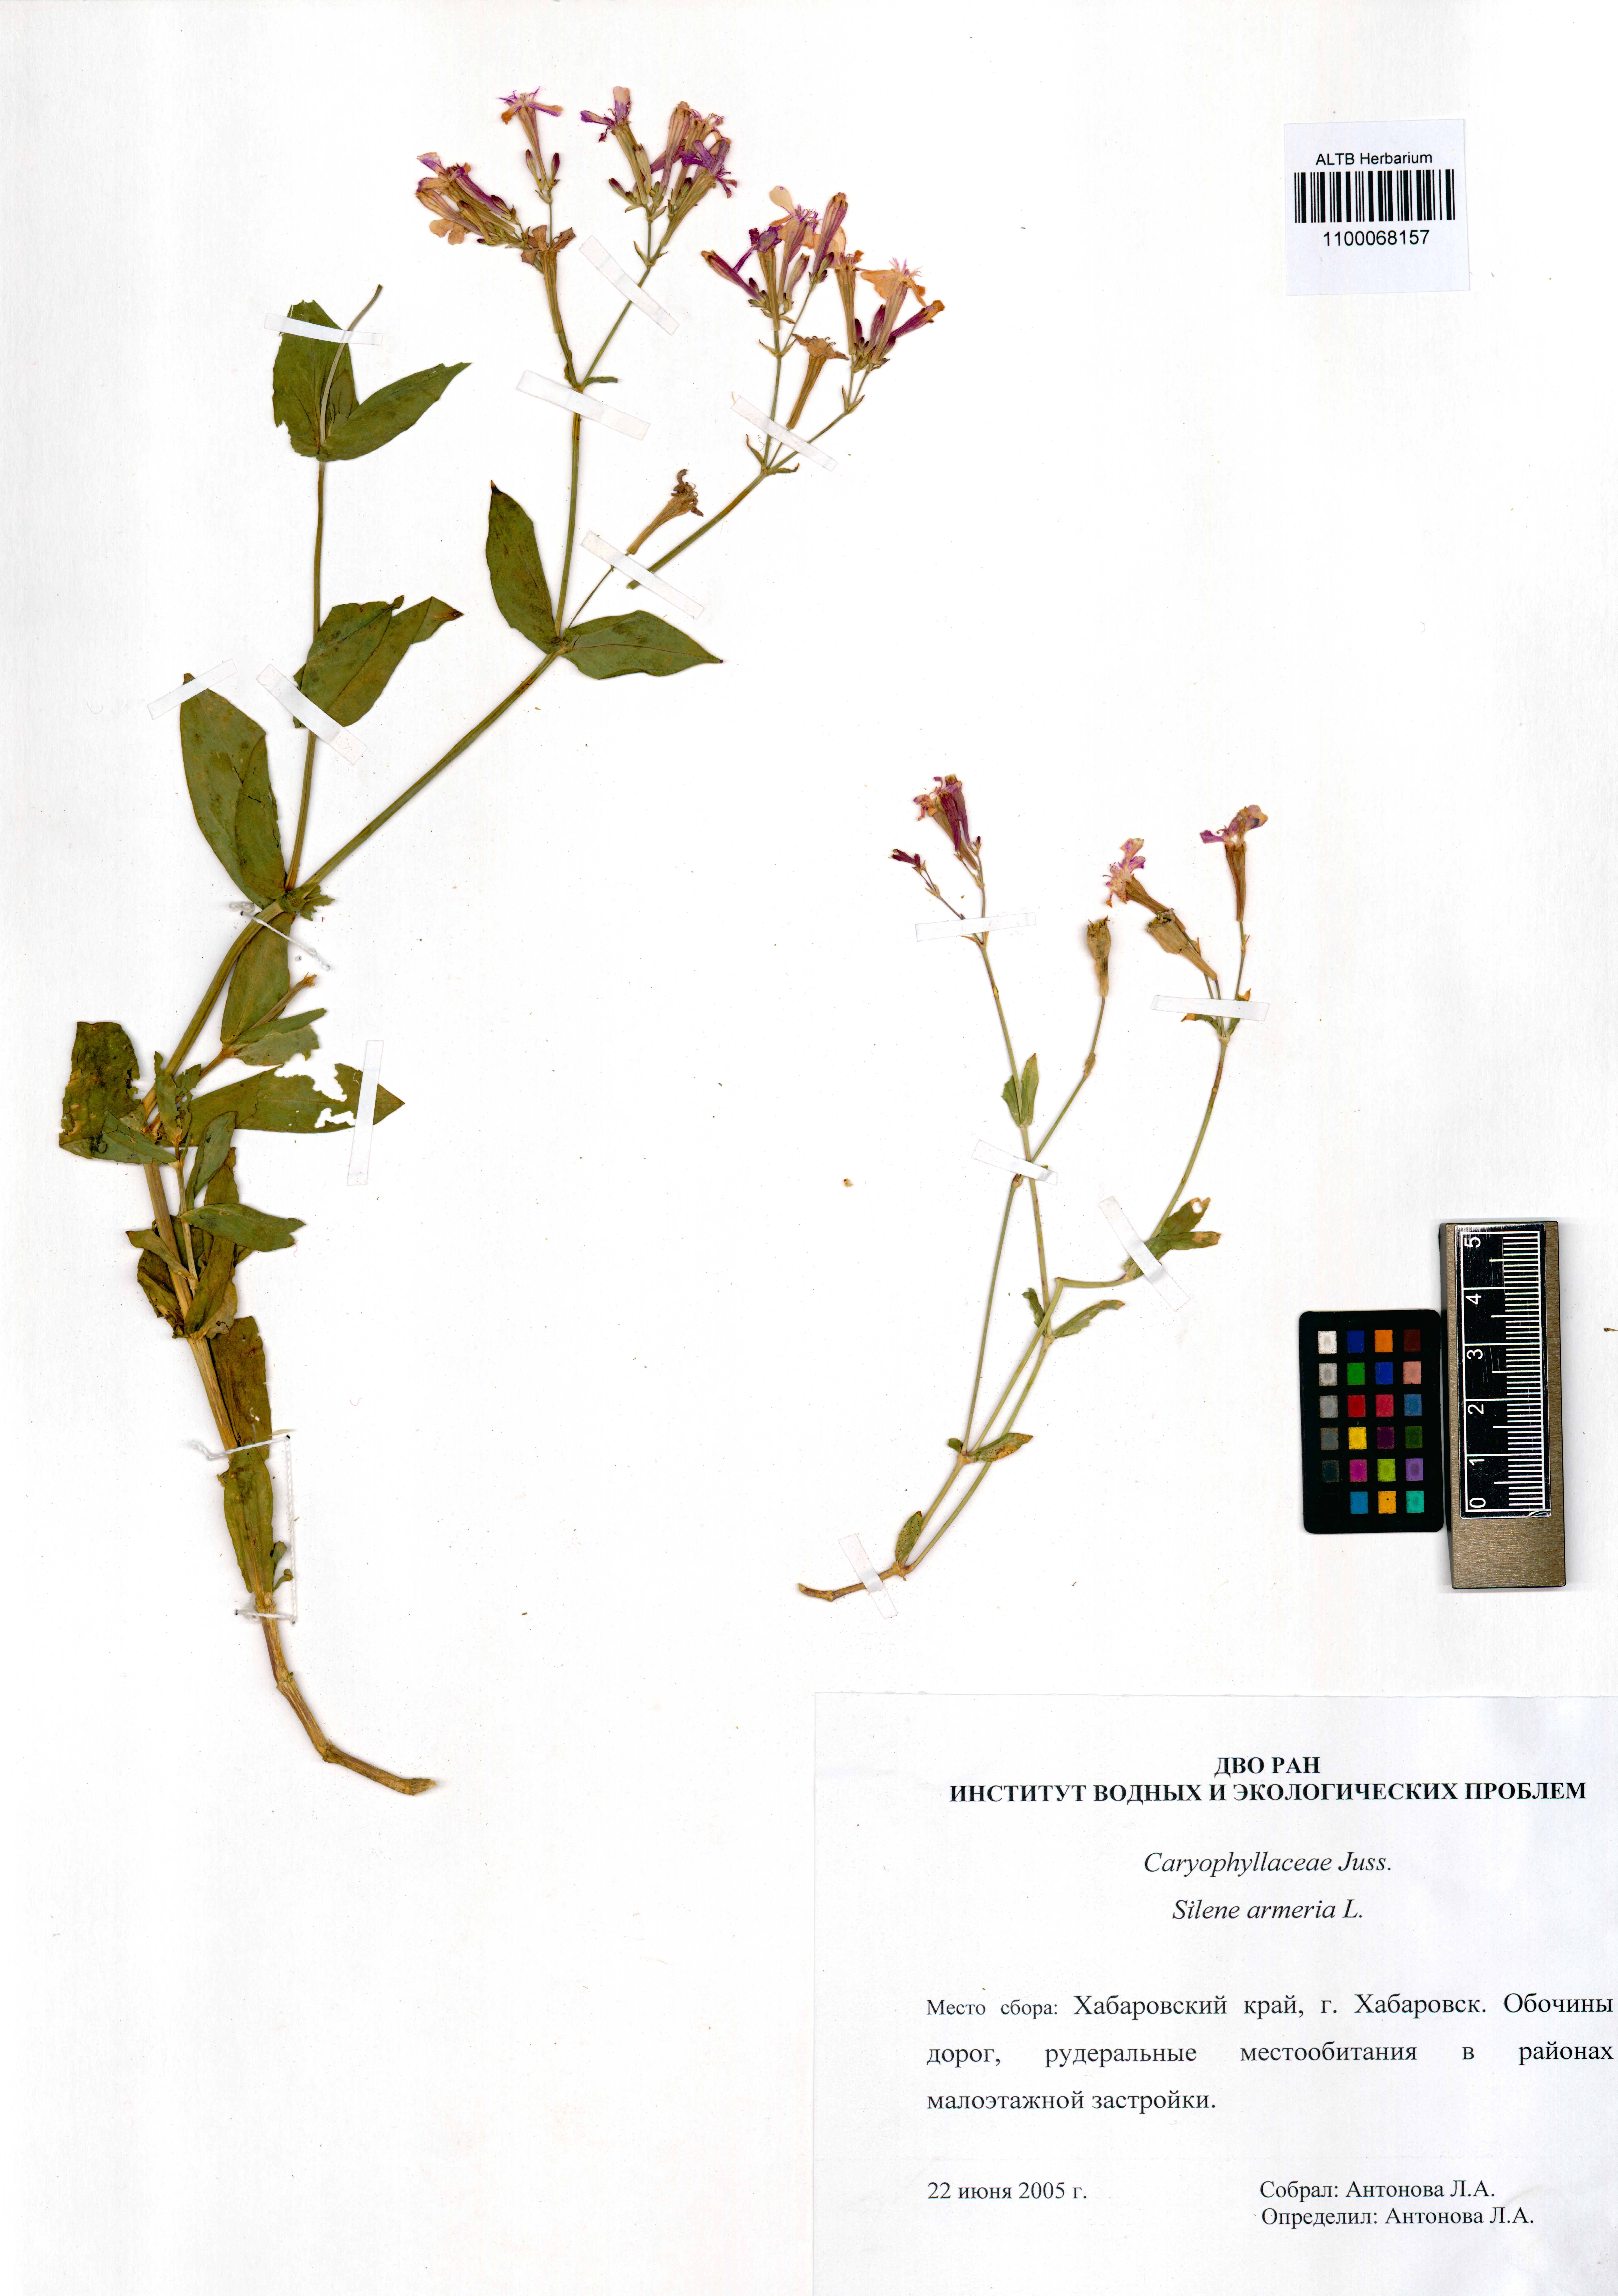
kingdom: Plantae
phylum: Tracheophyta
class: Magnoliopsida
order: Caryophyllales
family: Caryophyllaceae
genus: Atocion
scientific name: Atocion armeria
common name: Sweet william catchfly
